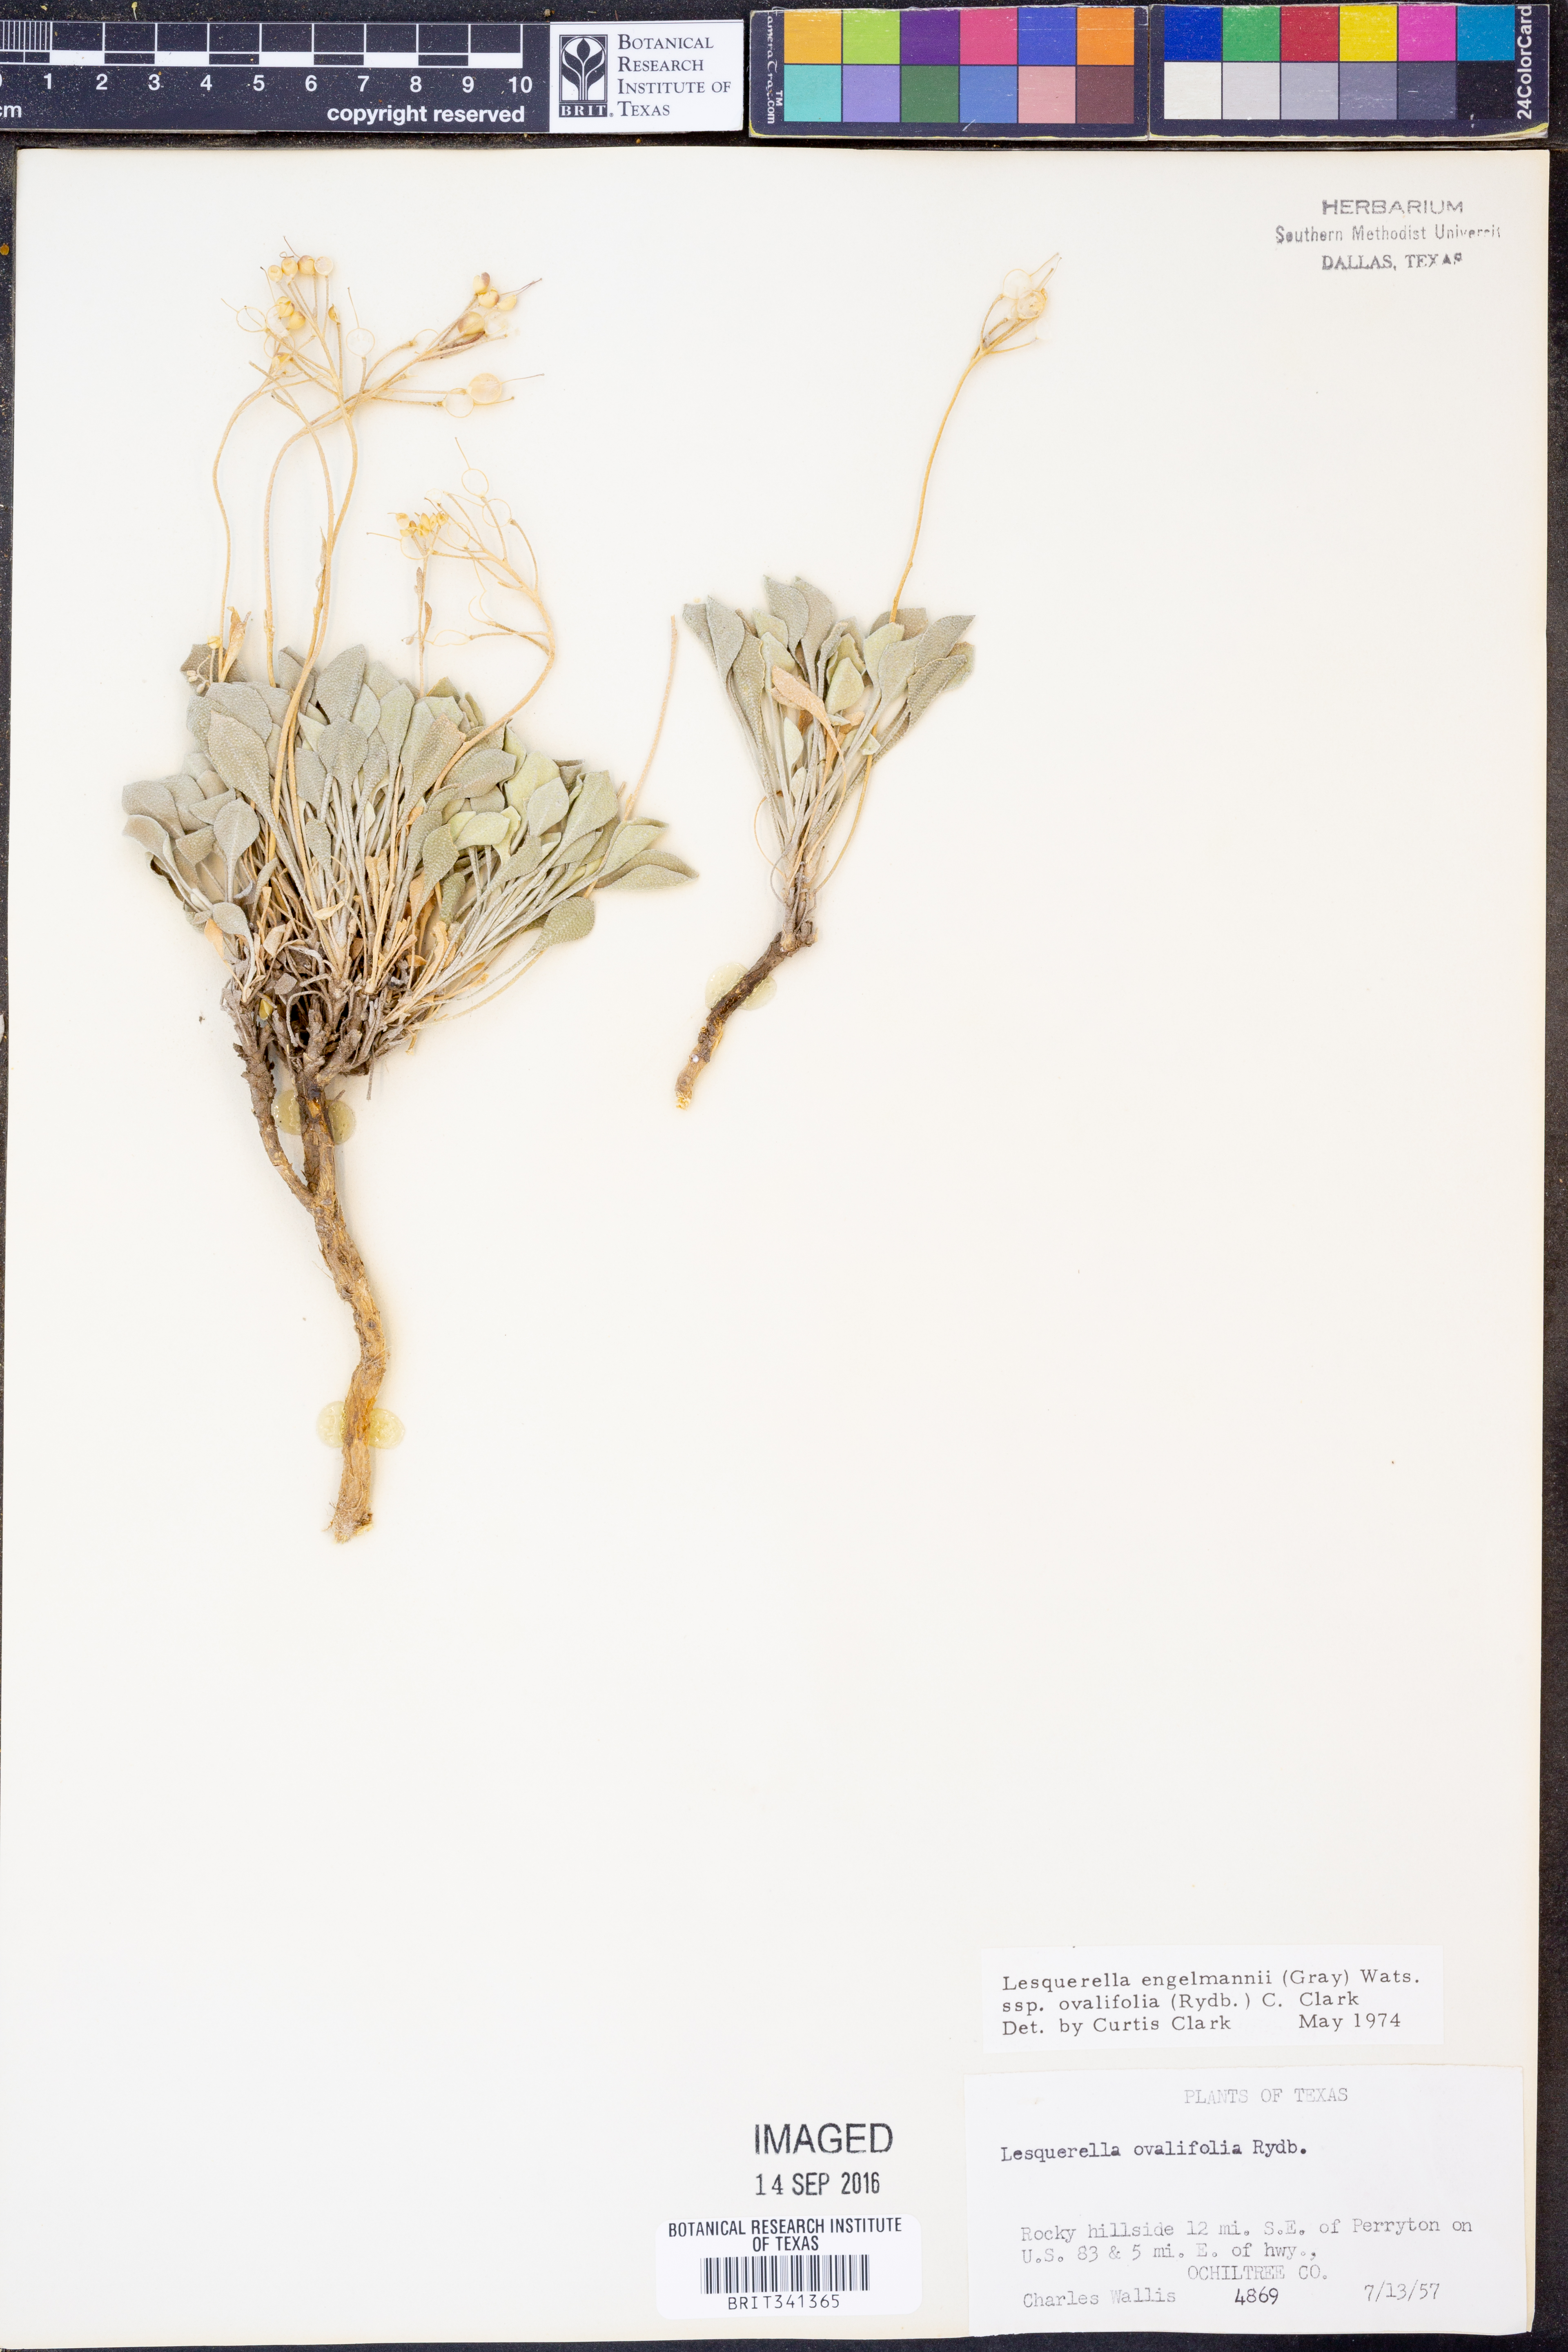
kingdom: Plantae
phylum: Tracheophyta
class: Magnoliopsida
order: Brassicales
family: Brassicaceae
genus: Physaria
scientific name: Physaria ovalifolia
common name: Round-leaf bladderpod
